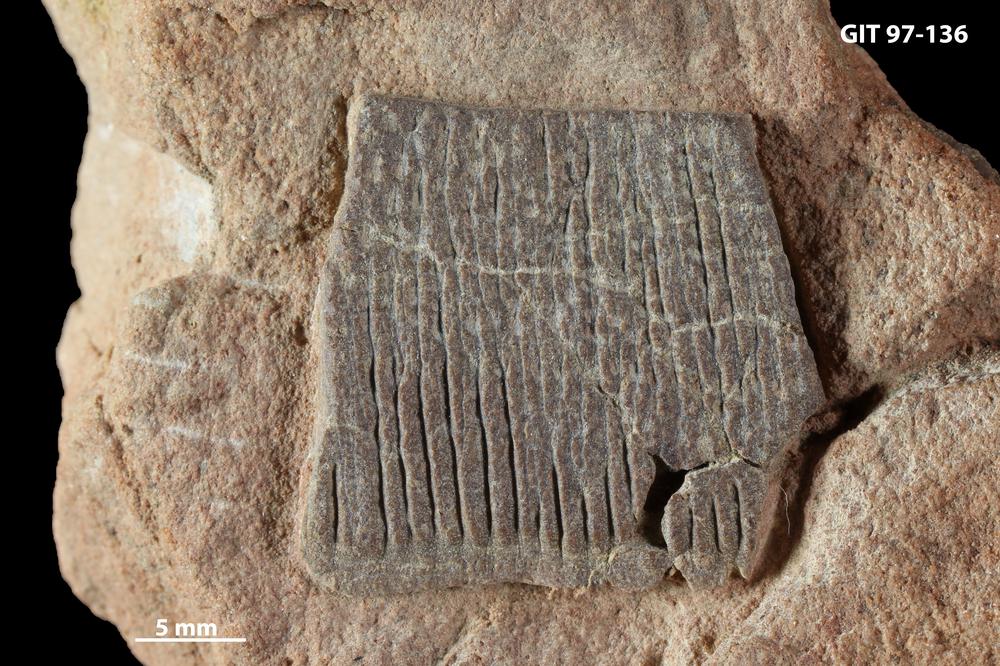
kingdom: Animalia
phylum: Chordata
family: Holonematidae
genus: Holonema
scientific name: Holonema
